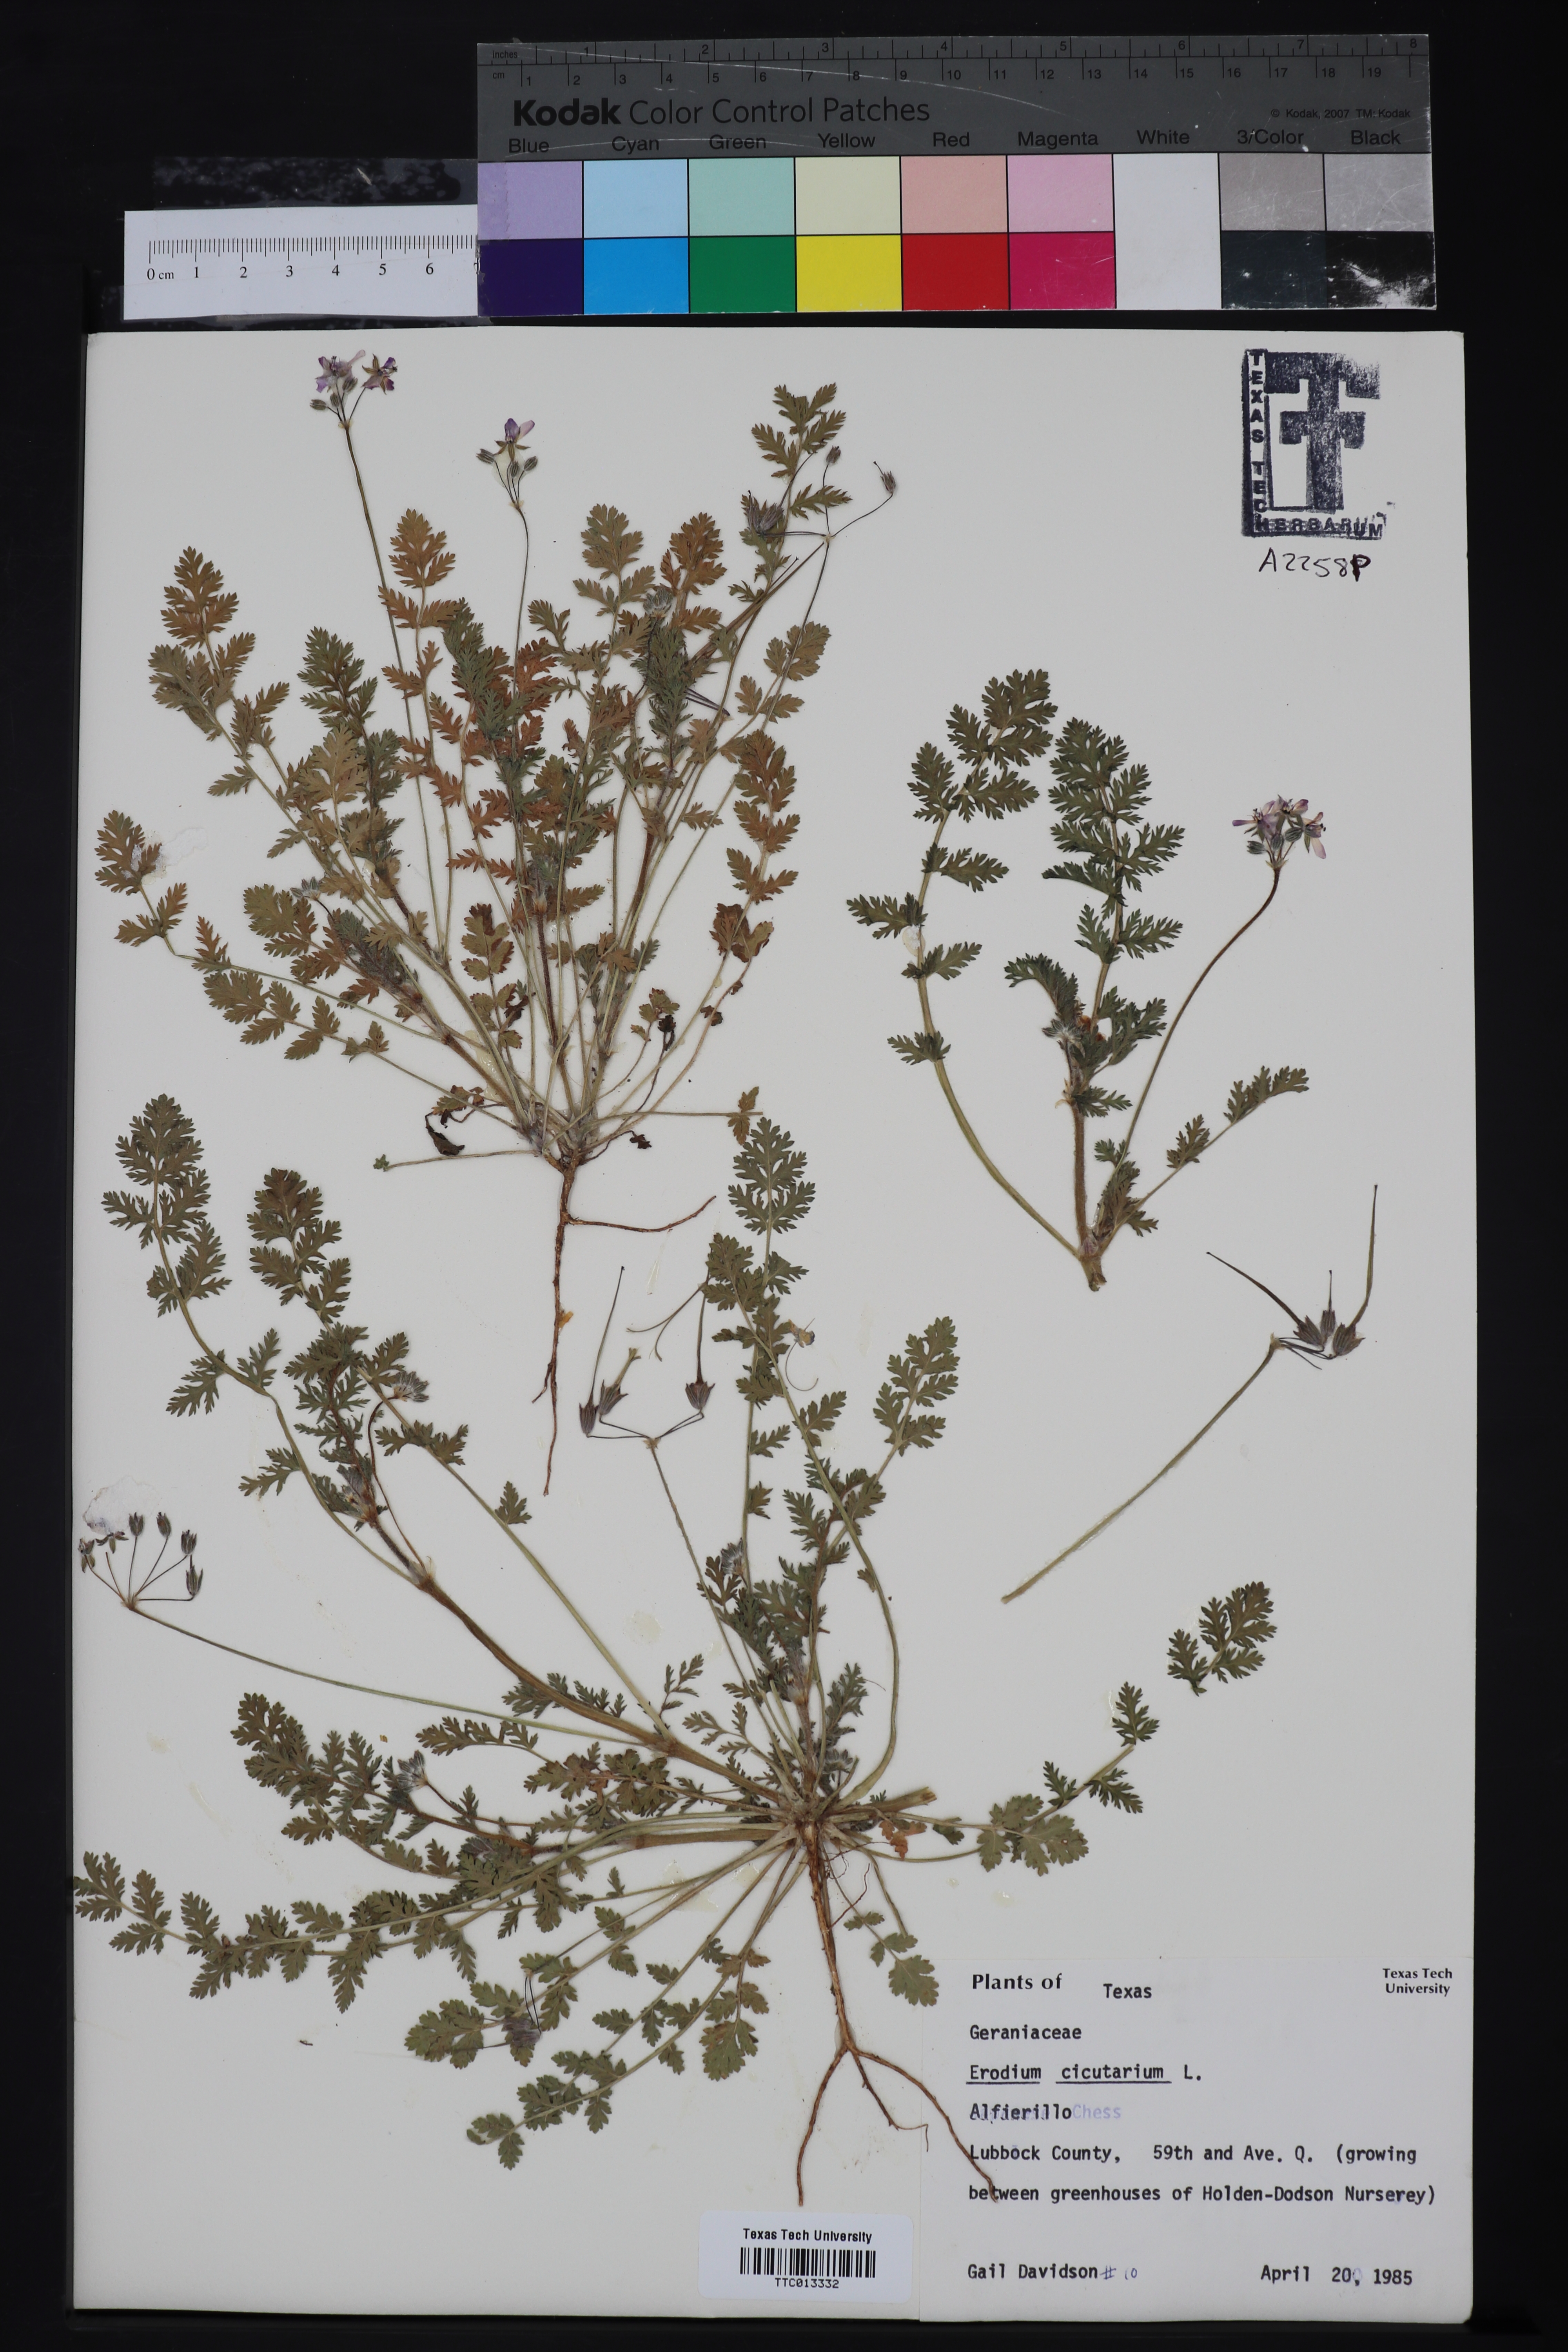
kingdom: Plantae
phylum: Tracheophyta
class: Magnoliopsida
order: Geraniales
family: Geraniaceae
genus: Erodium
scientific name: Erodium cicutarium
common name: Common stork's-bill
